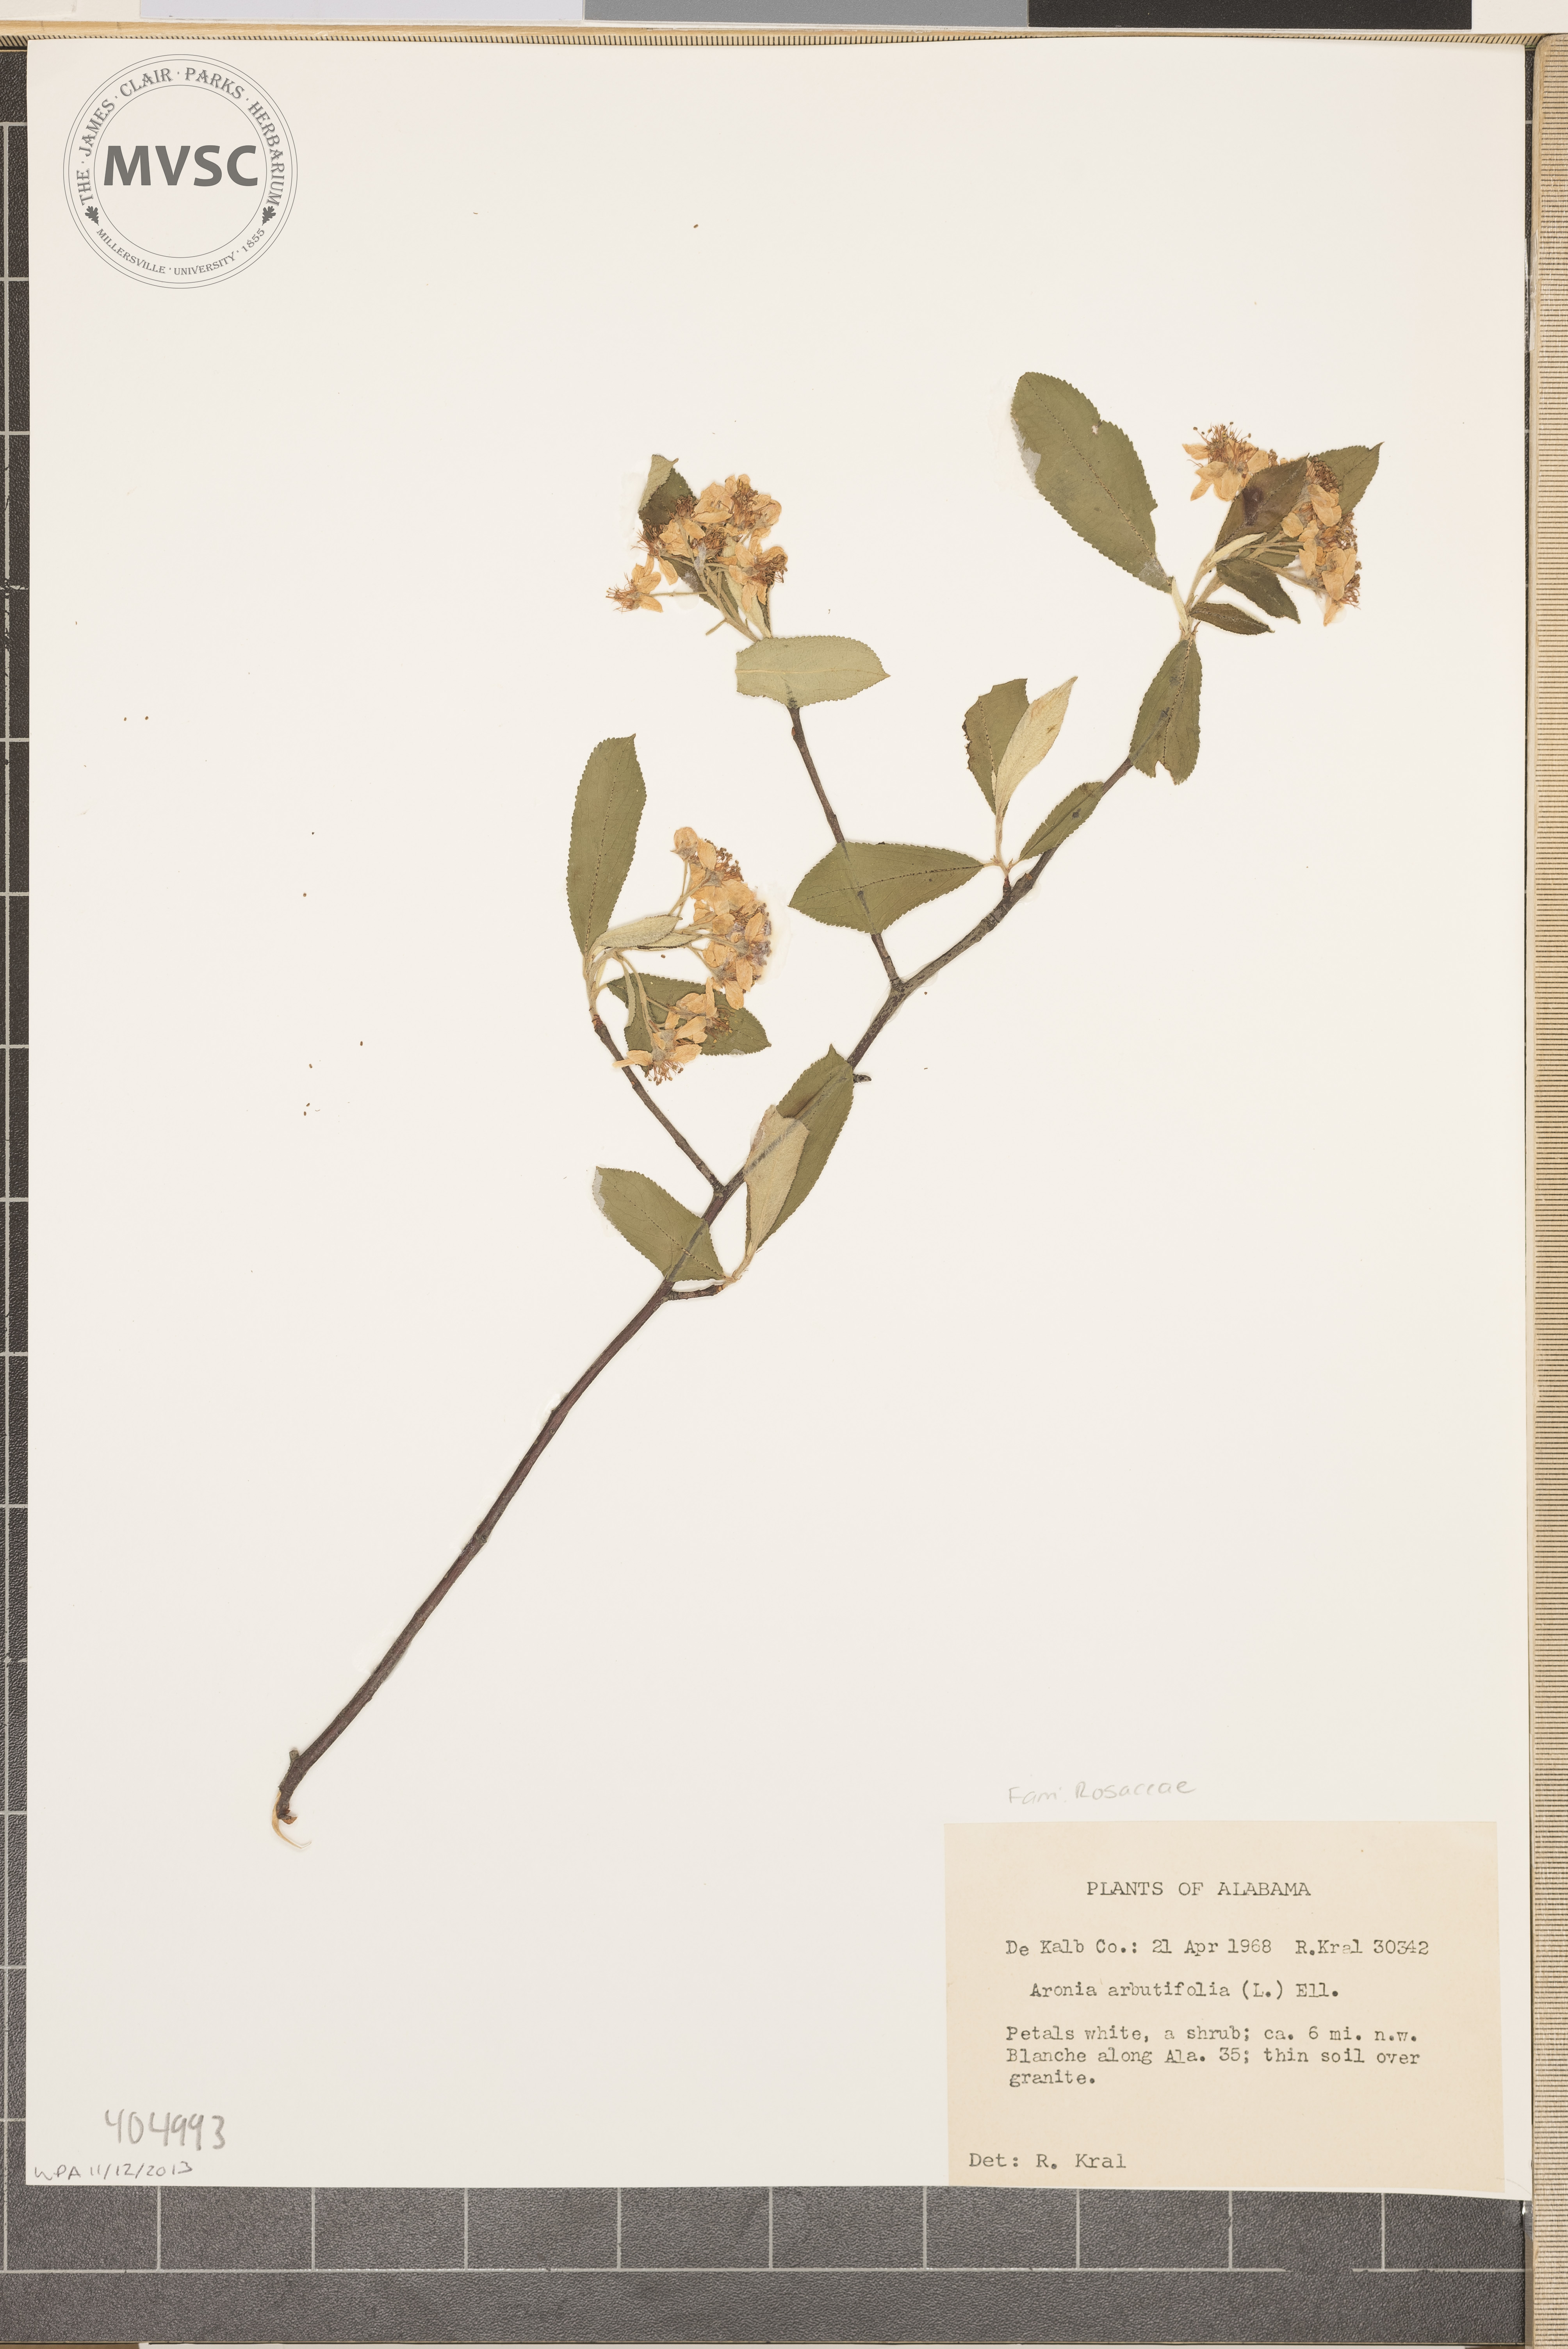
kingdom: Plantae
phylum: Tracheophyta
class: Magnoliopsida
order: Rosales
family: Rosaceae
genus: Aronia
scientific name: Aronia arbutifolia
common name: Red chokeberry
